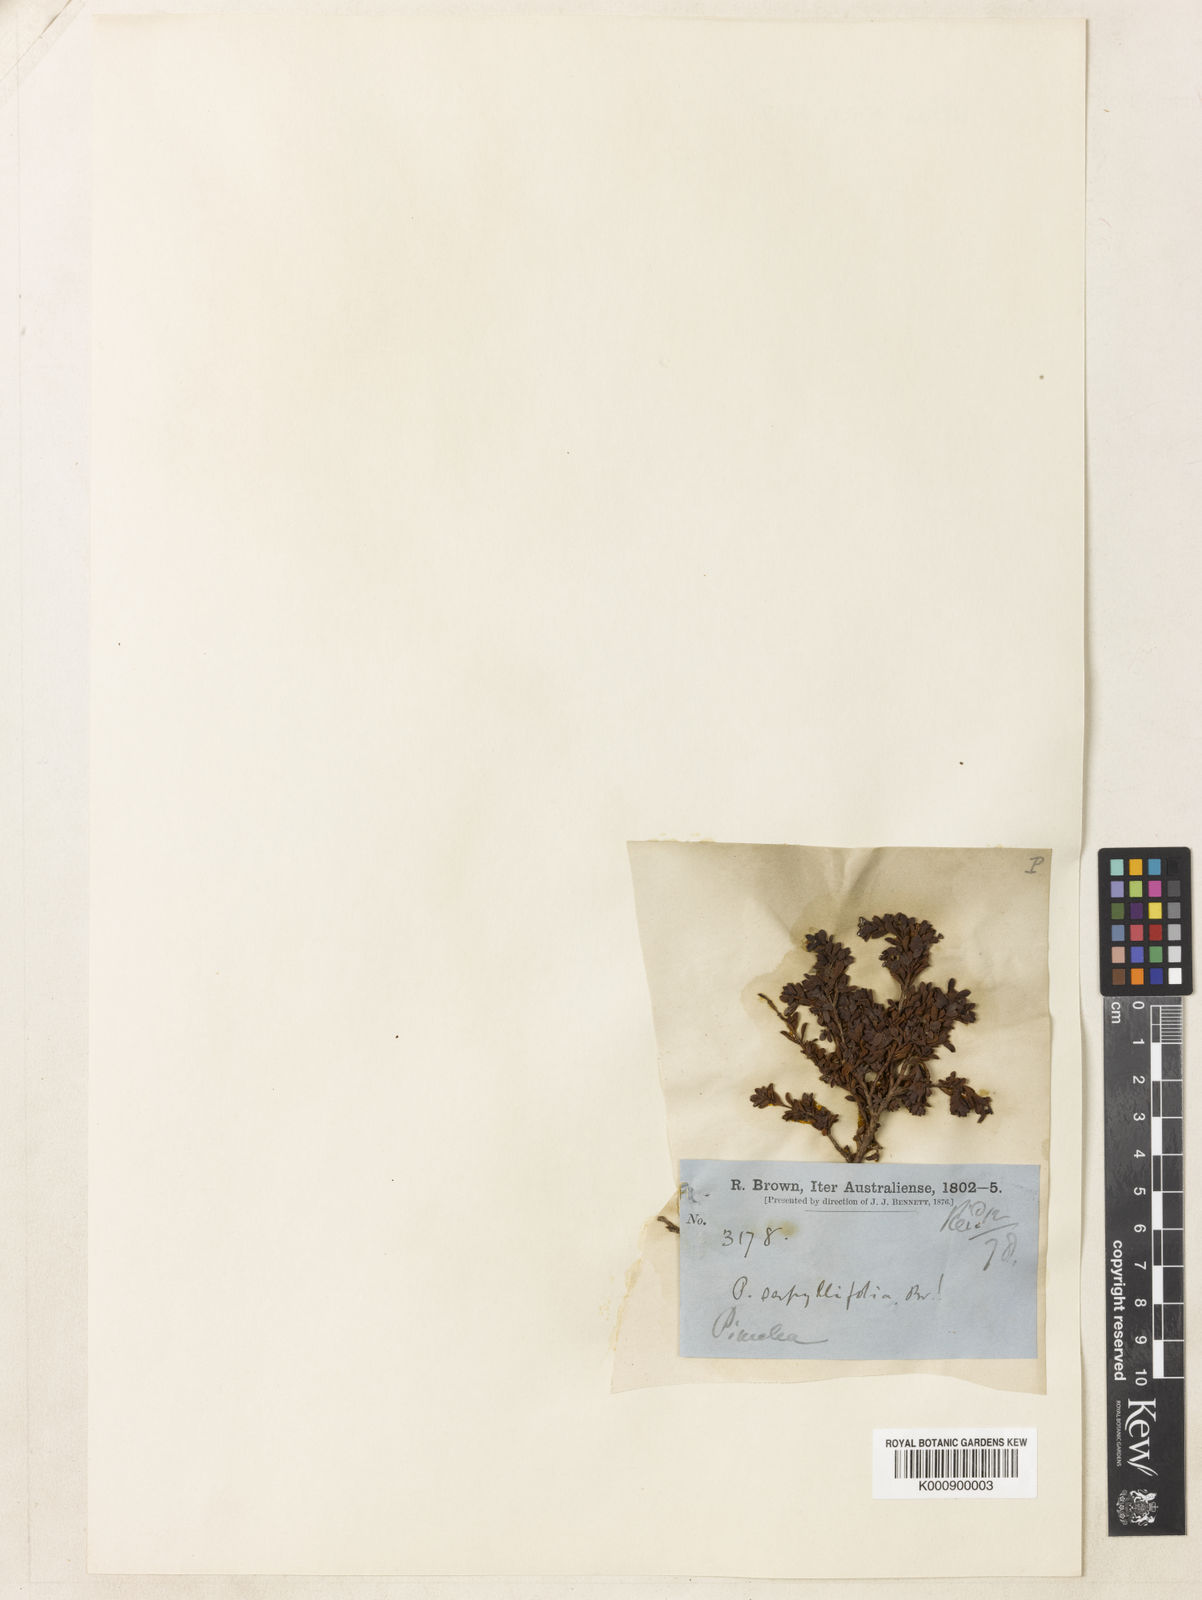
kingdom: Plantae
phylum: Tracheophyta
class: Magnoliopsida
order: Malvales
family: Thymelaeaceae
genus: Pimelea
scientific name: Pimelea serpyllifolia
